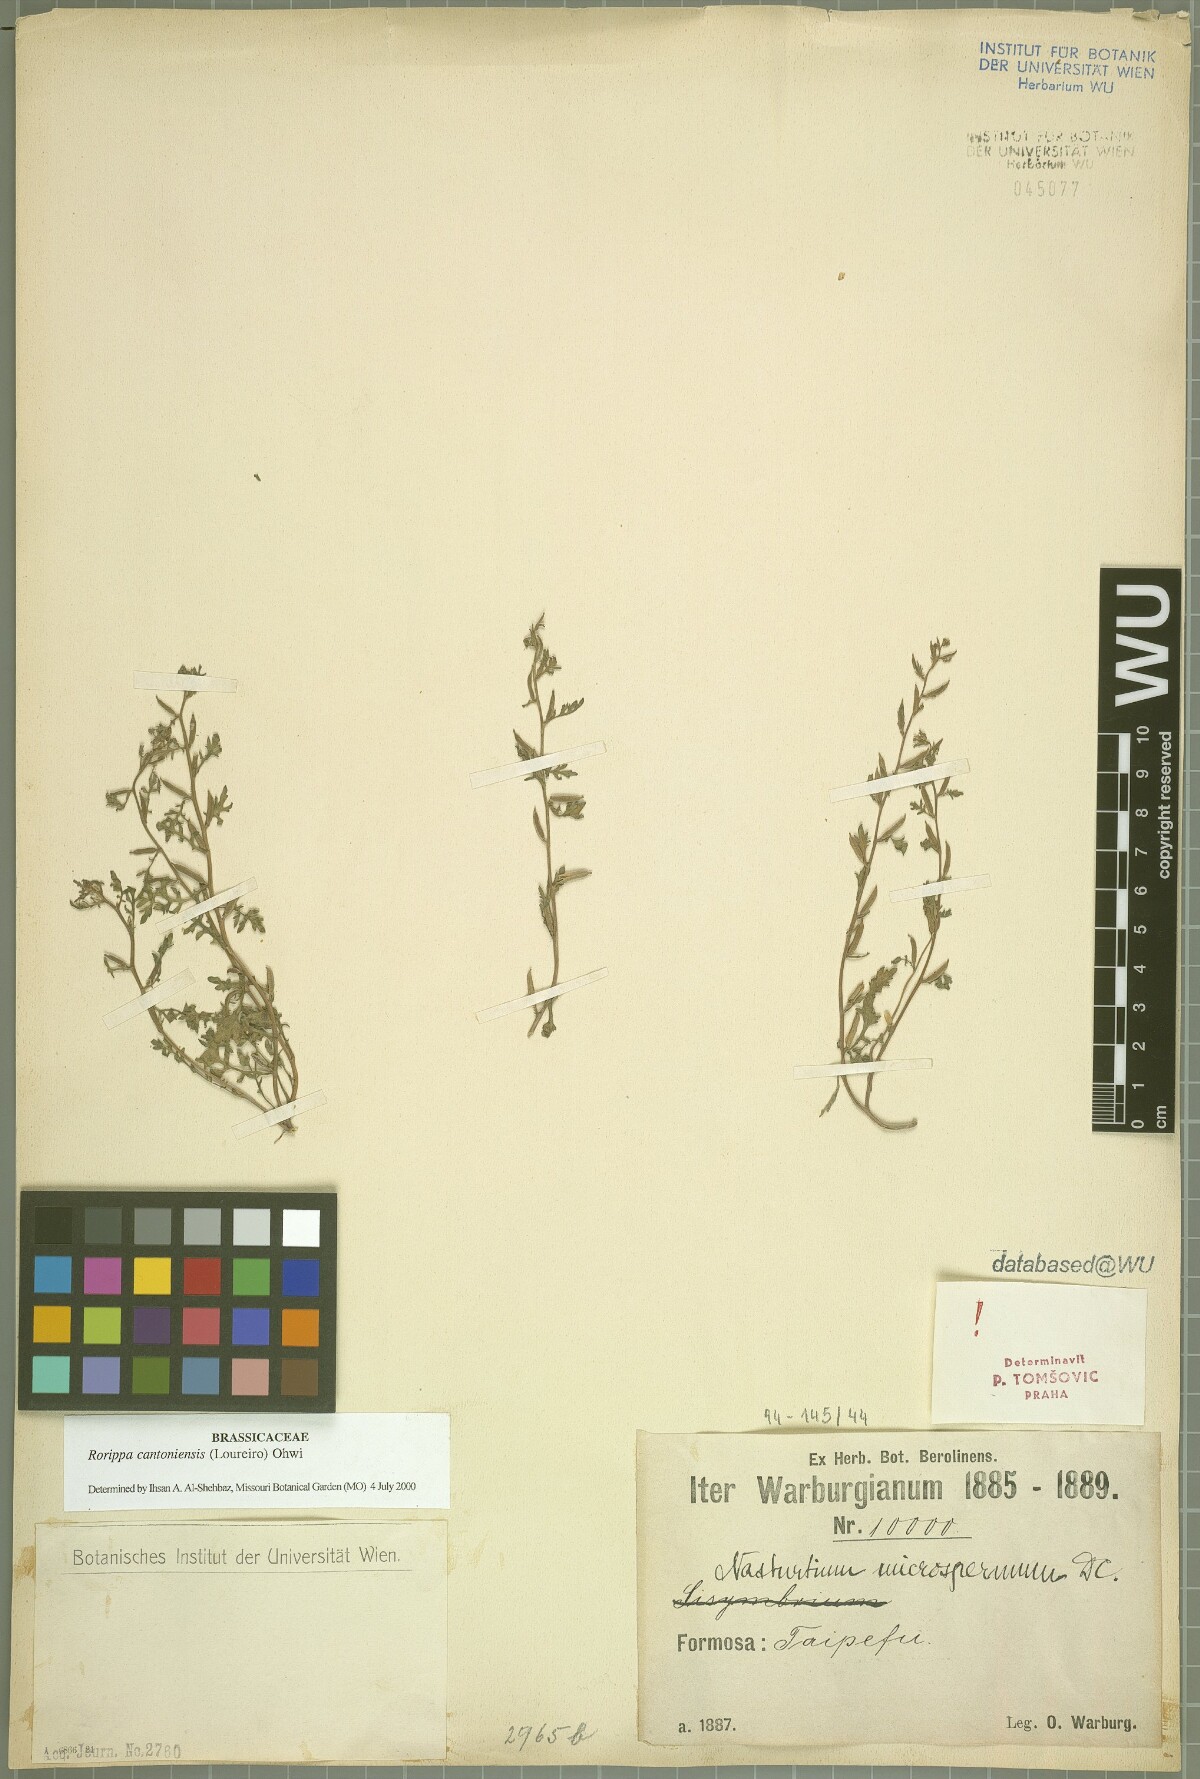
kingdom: Plantae
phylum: Tracheophyta
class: Magnoliopsida
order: Brassicales
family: Brassicaceae
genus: Rorippa
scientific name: Rorippa cantoniensis
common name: Chinese yellowcress
